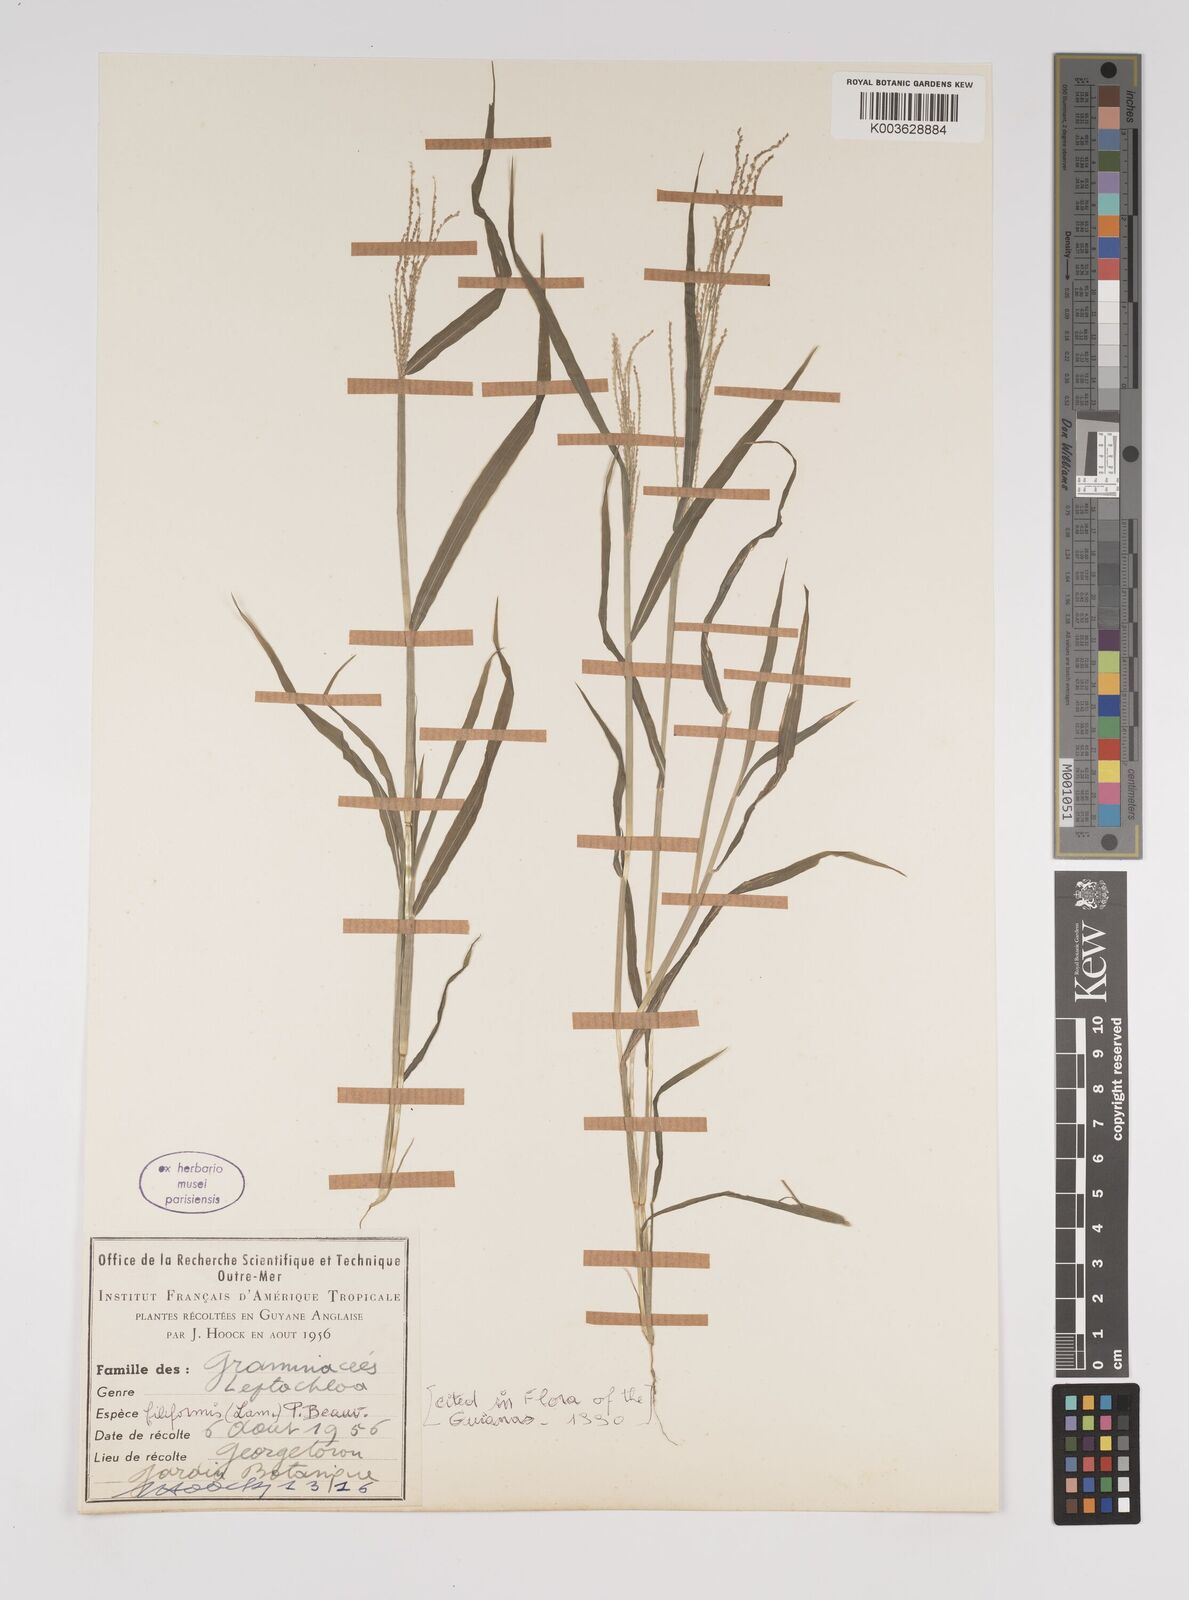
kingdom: Plantae
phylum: Tracheophyta
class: Liliopsida
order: Poales
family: Poaceae
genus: Leptochloa
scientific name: Leptochloa panicea
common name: Mucronate sprangletop
